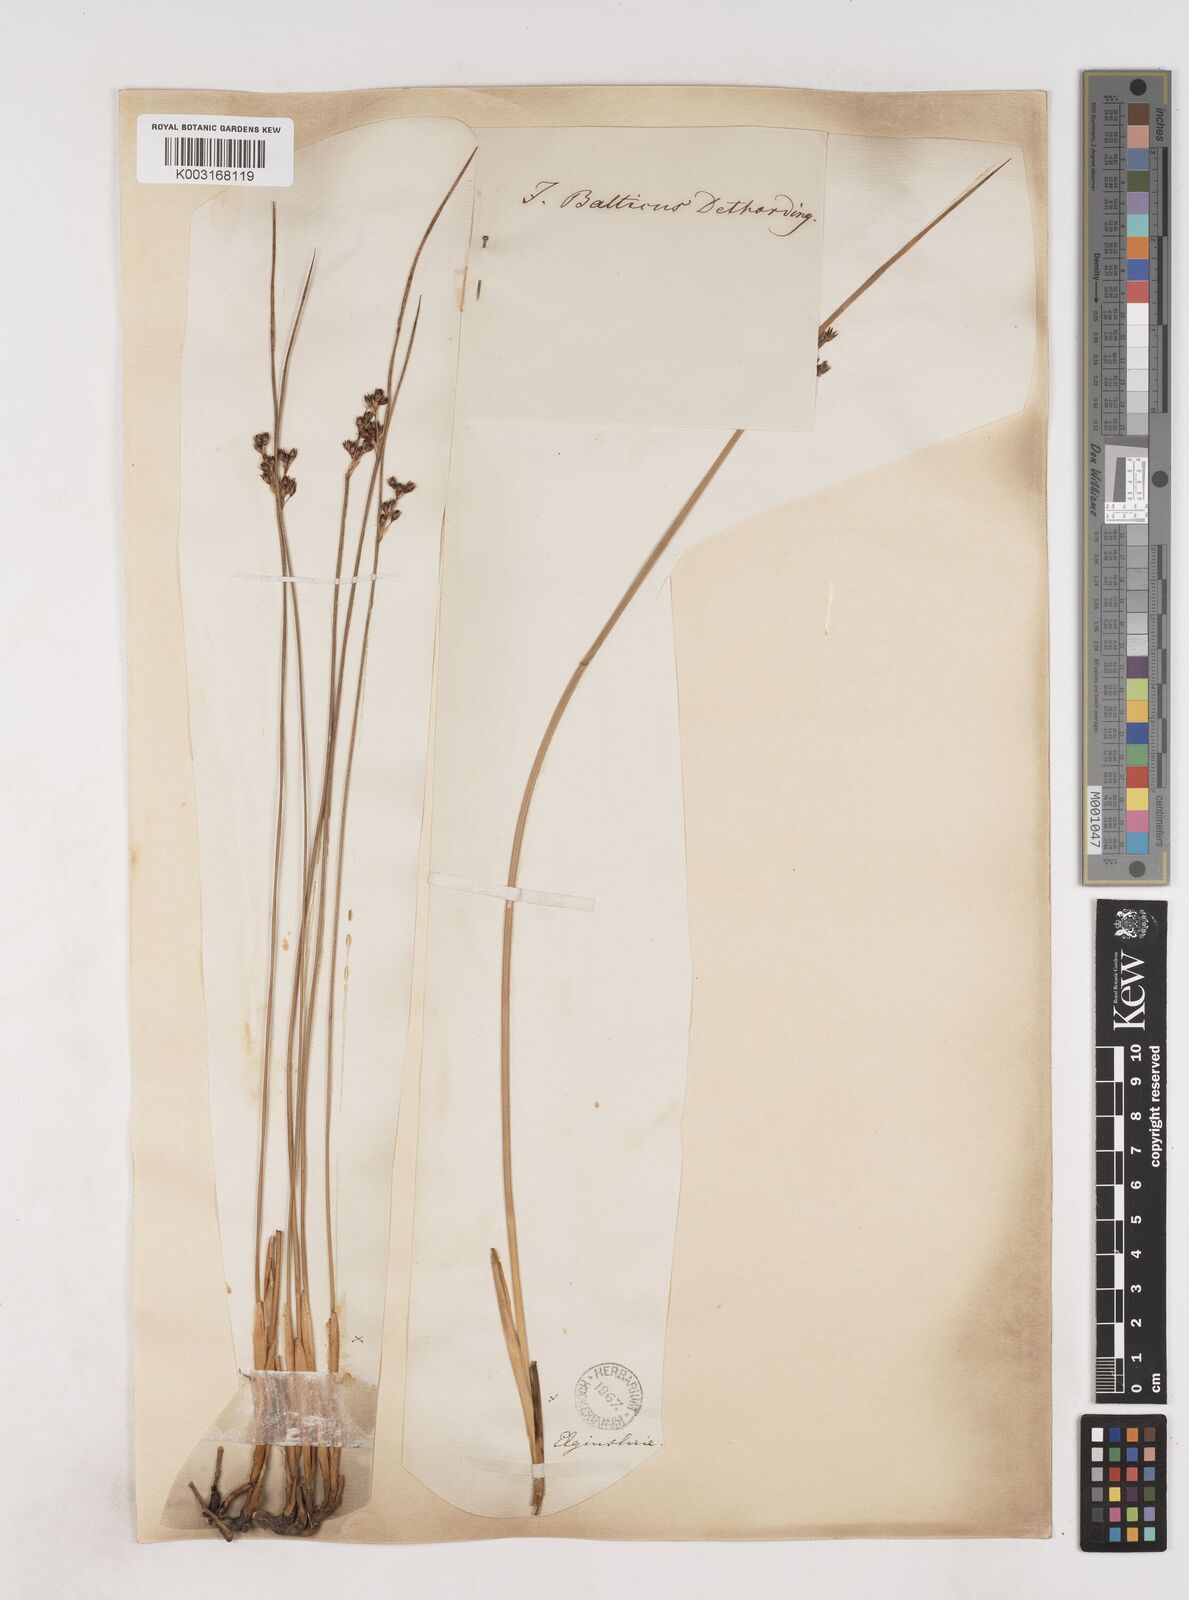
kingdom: Plantae
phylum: Tracheophyta
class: Liliopsida
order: Poales
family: Juncaceae
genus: Juncus
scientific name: Juncus balticus
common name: Baltic rush
